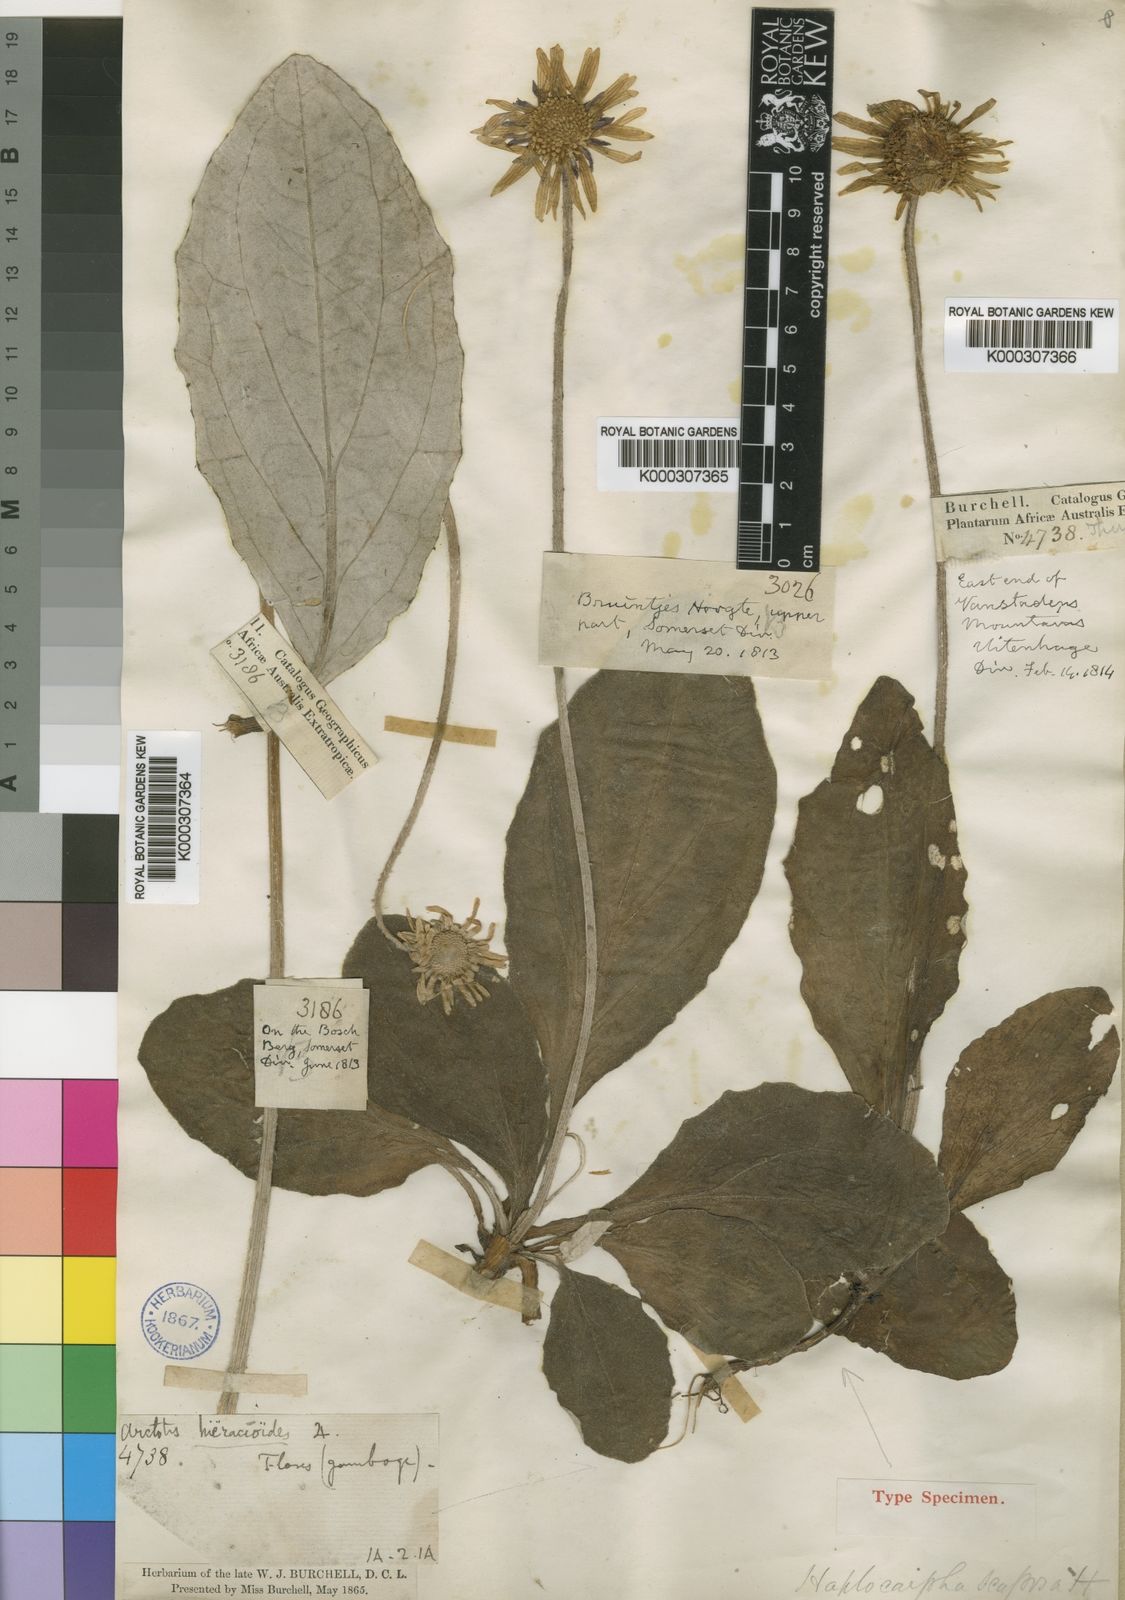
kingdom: Plantae
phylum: Tracheophyta
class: Magnoliopsida
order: Asterales
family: Asteraceae
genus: Haplocarpha
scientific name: Haplocarpha scaposa
